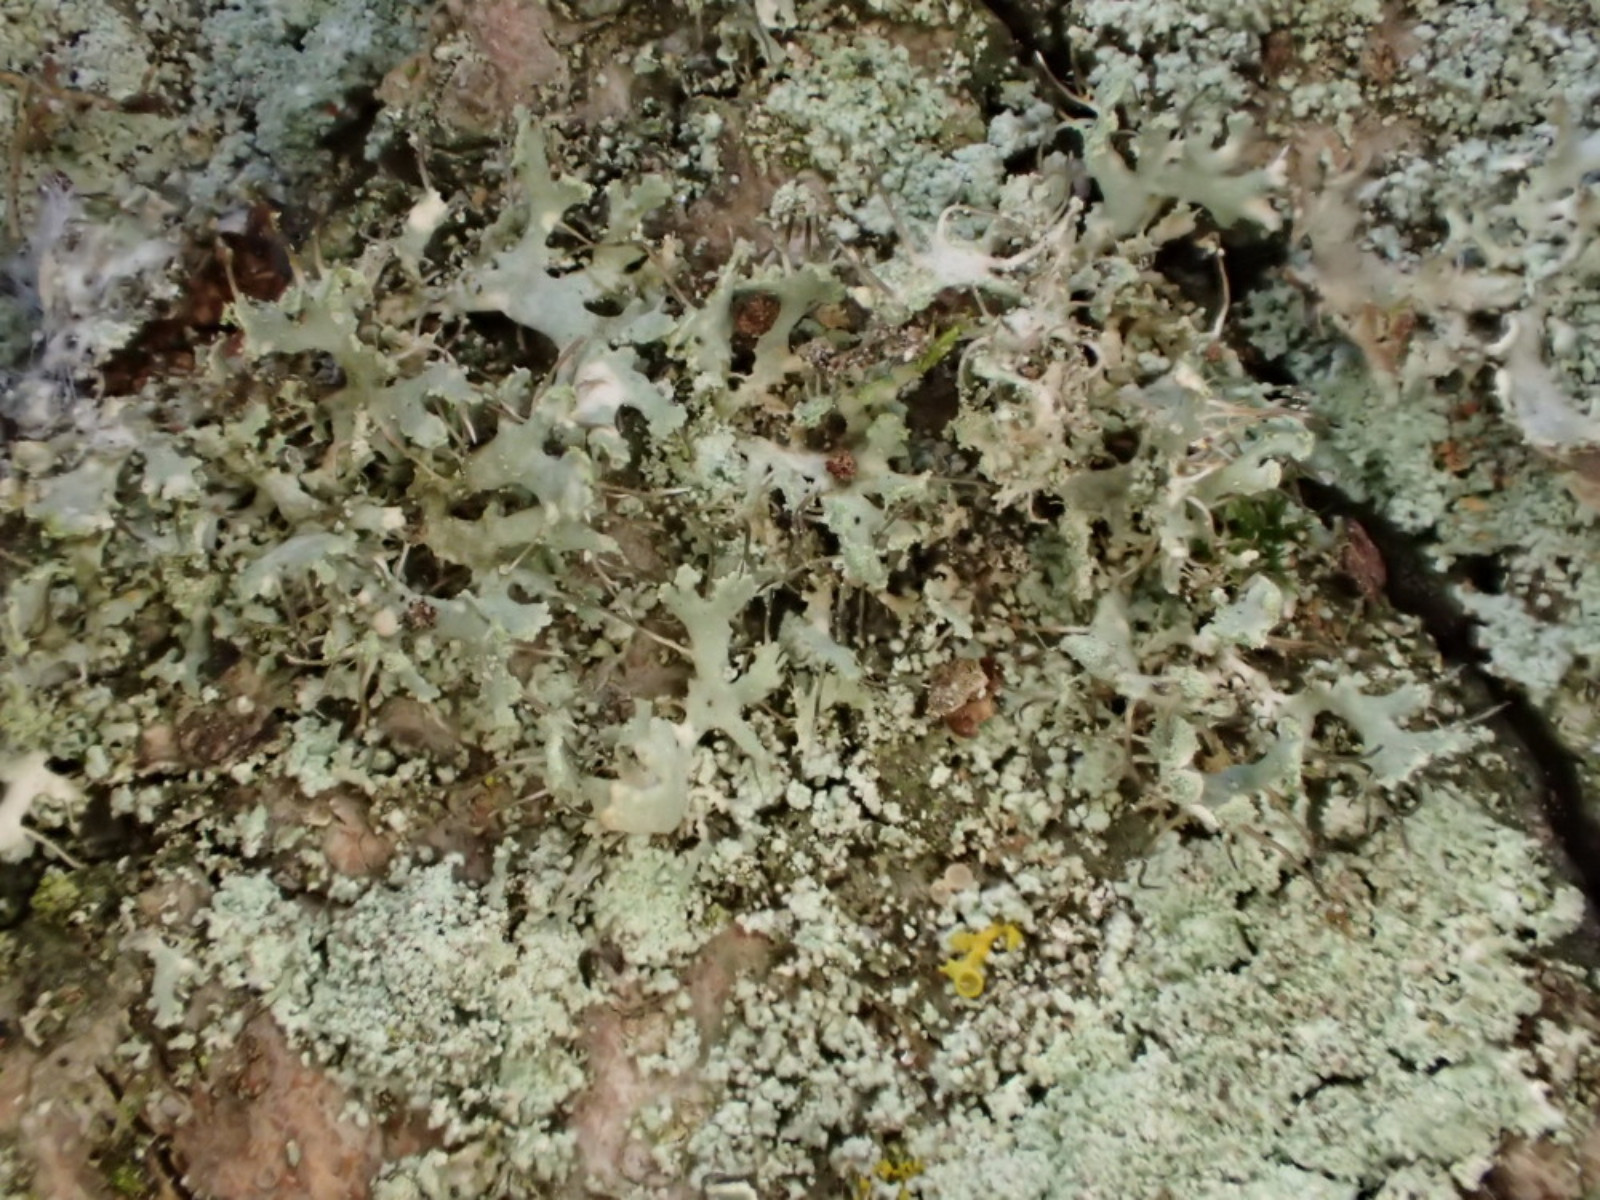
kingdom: Fungi
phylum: Ascomycota
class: Lecanoromycetes
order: Caliciales
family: Physciaceae
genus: Physcia
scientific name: Physcia tenella
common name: spæd rosetlav
